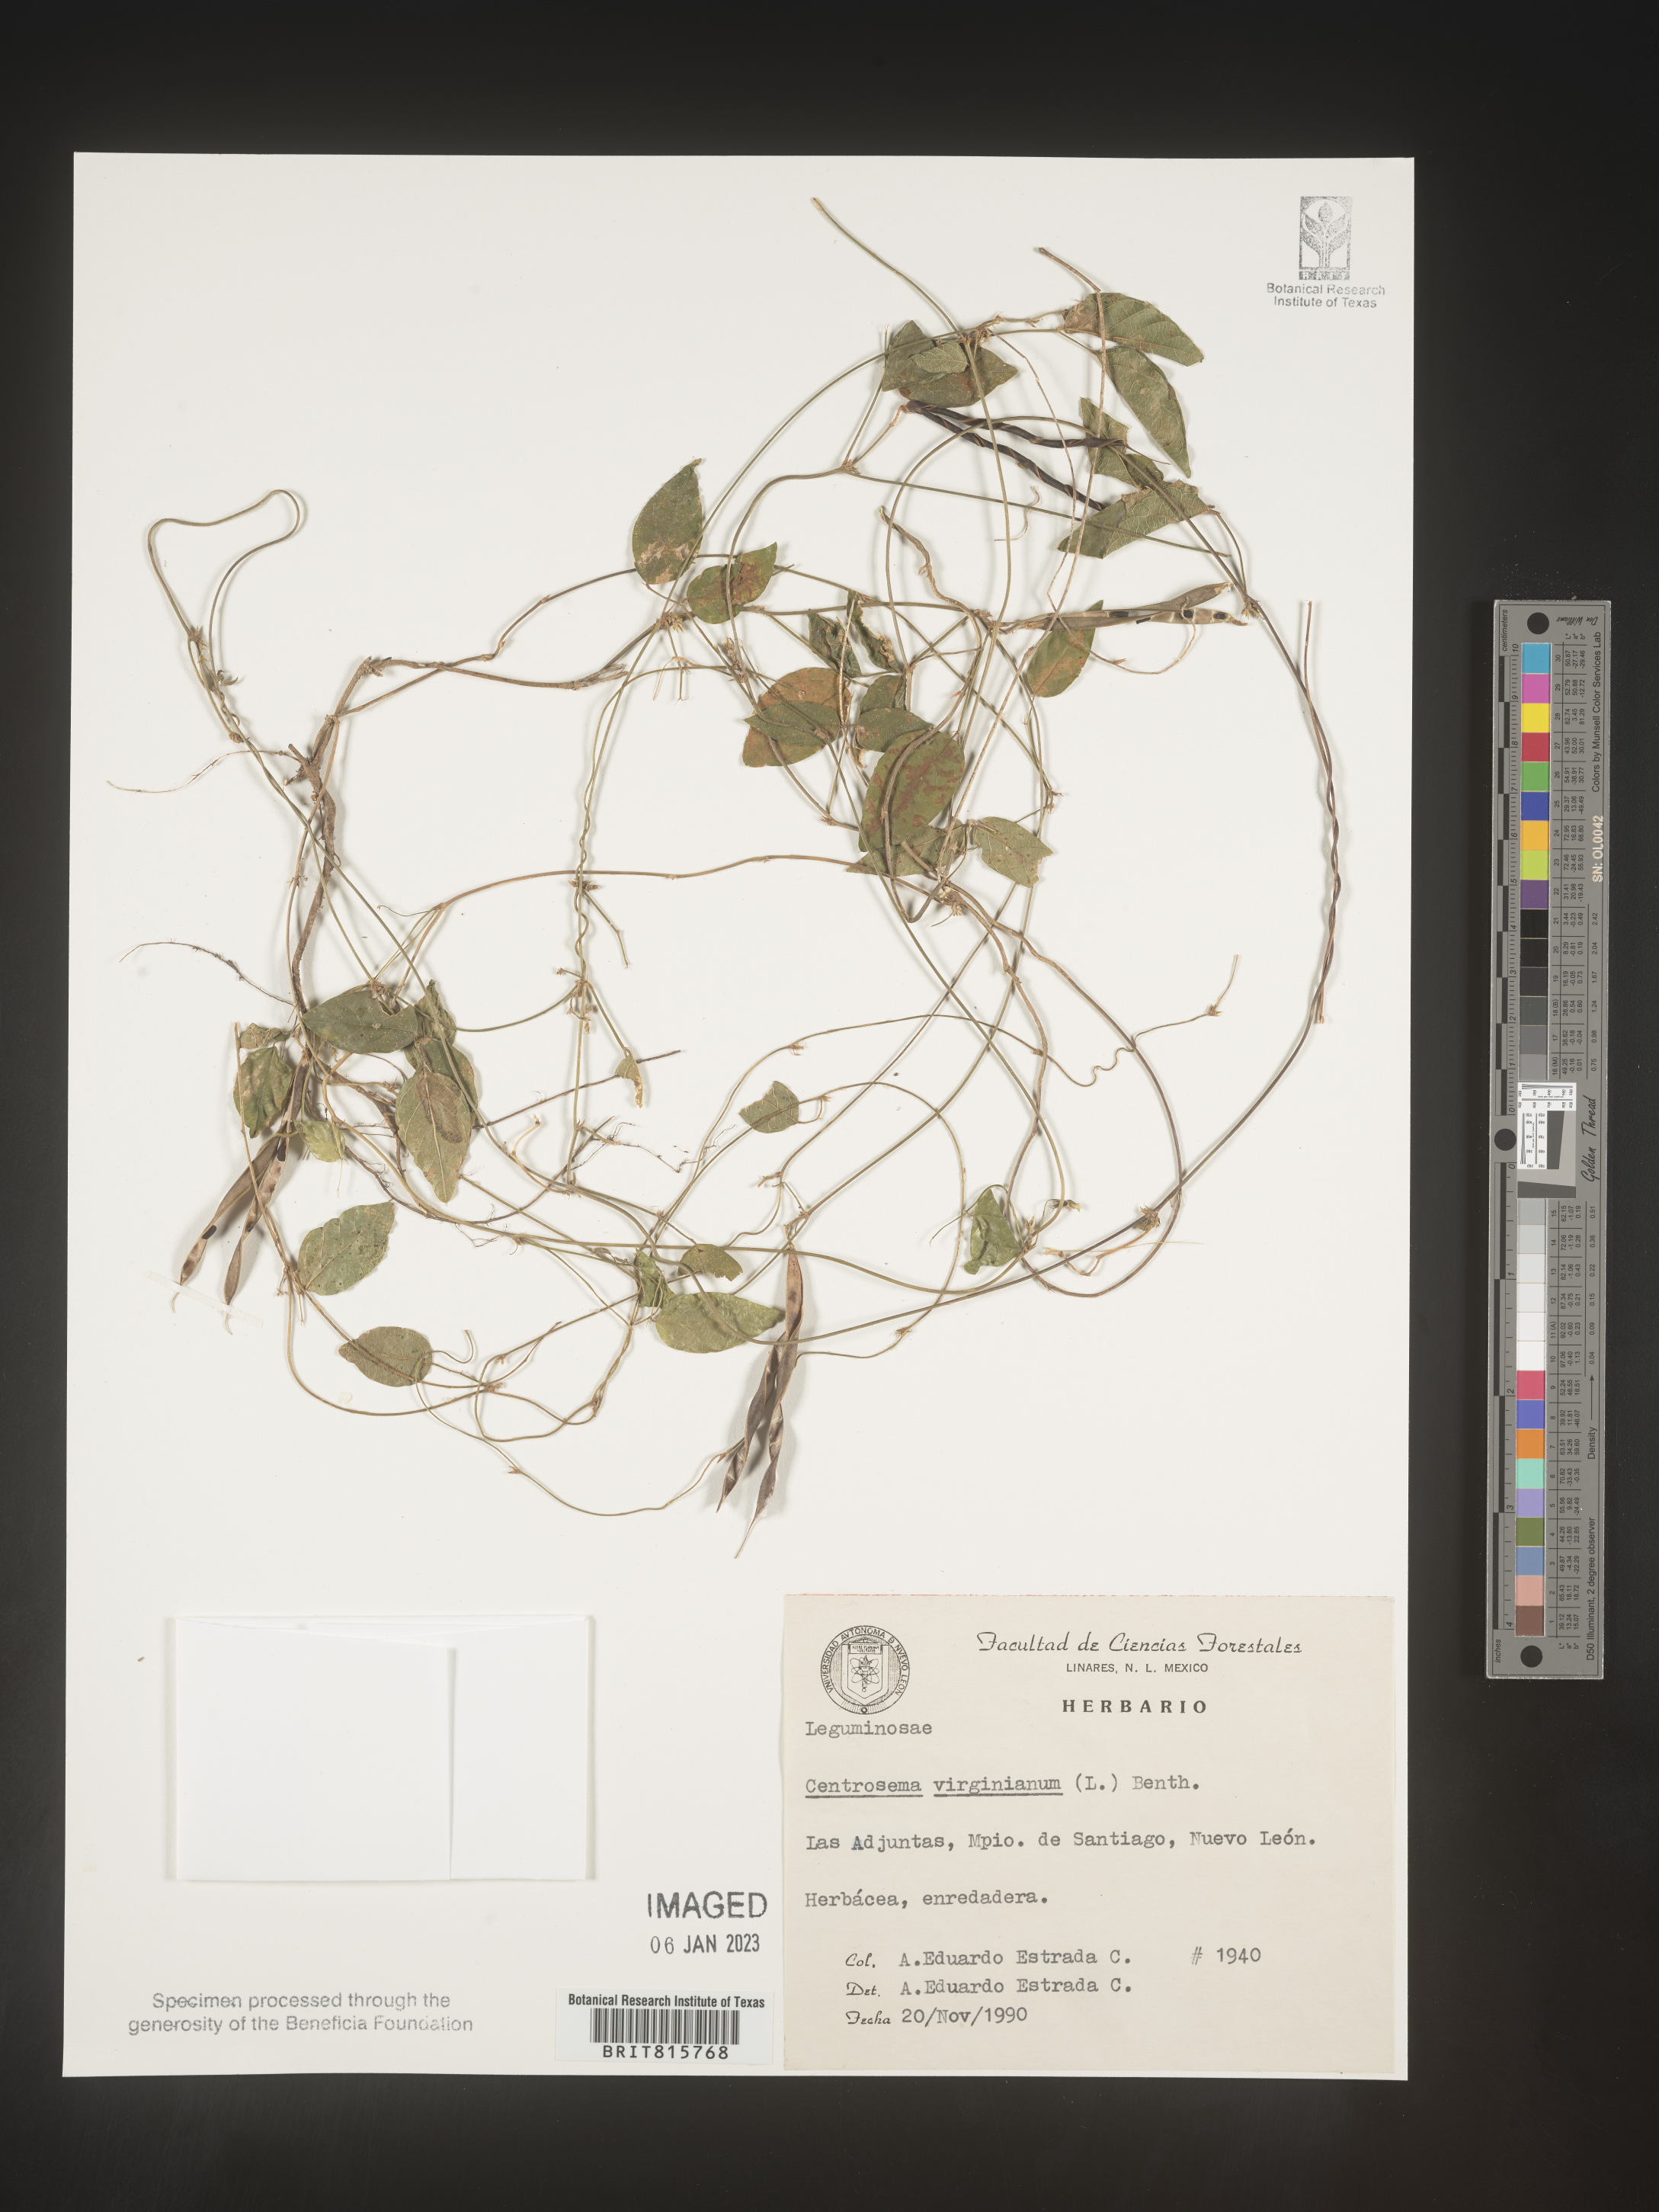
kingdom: Plantae
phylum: Tracheophyta
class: Magnoliopsida
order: Fabales
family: Fabaceae
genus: Centrosema
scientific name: Centrosema
